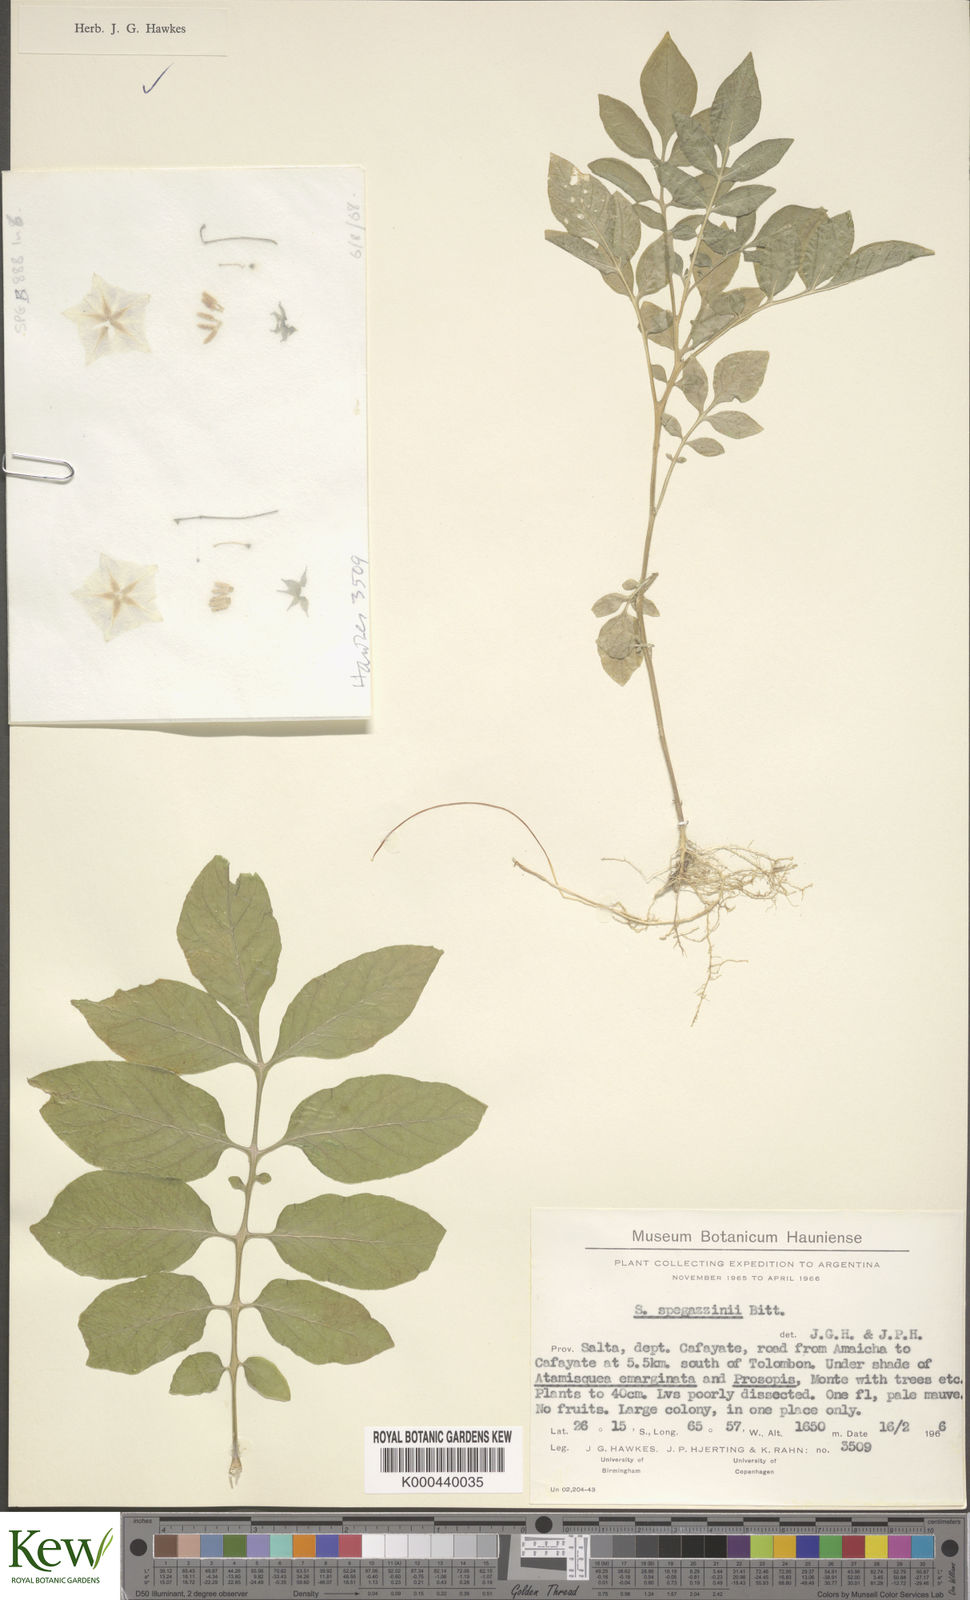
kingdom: Plantae
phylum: Tracheophyta
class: Magnoliopsida
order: Solanales
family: Solanaceae
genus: Solanum
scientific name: Solanum brevicaule
